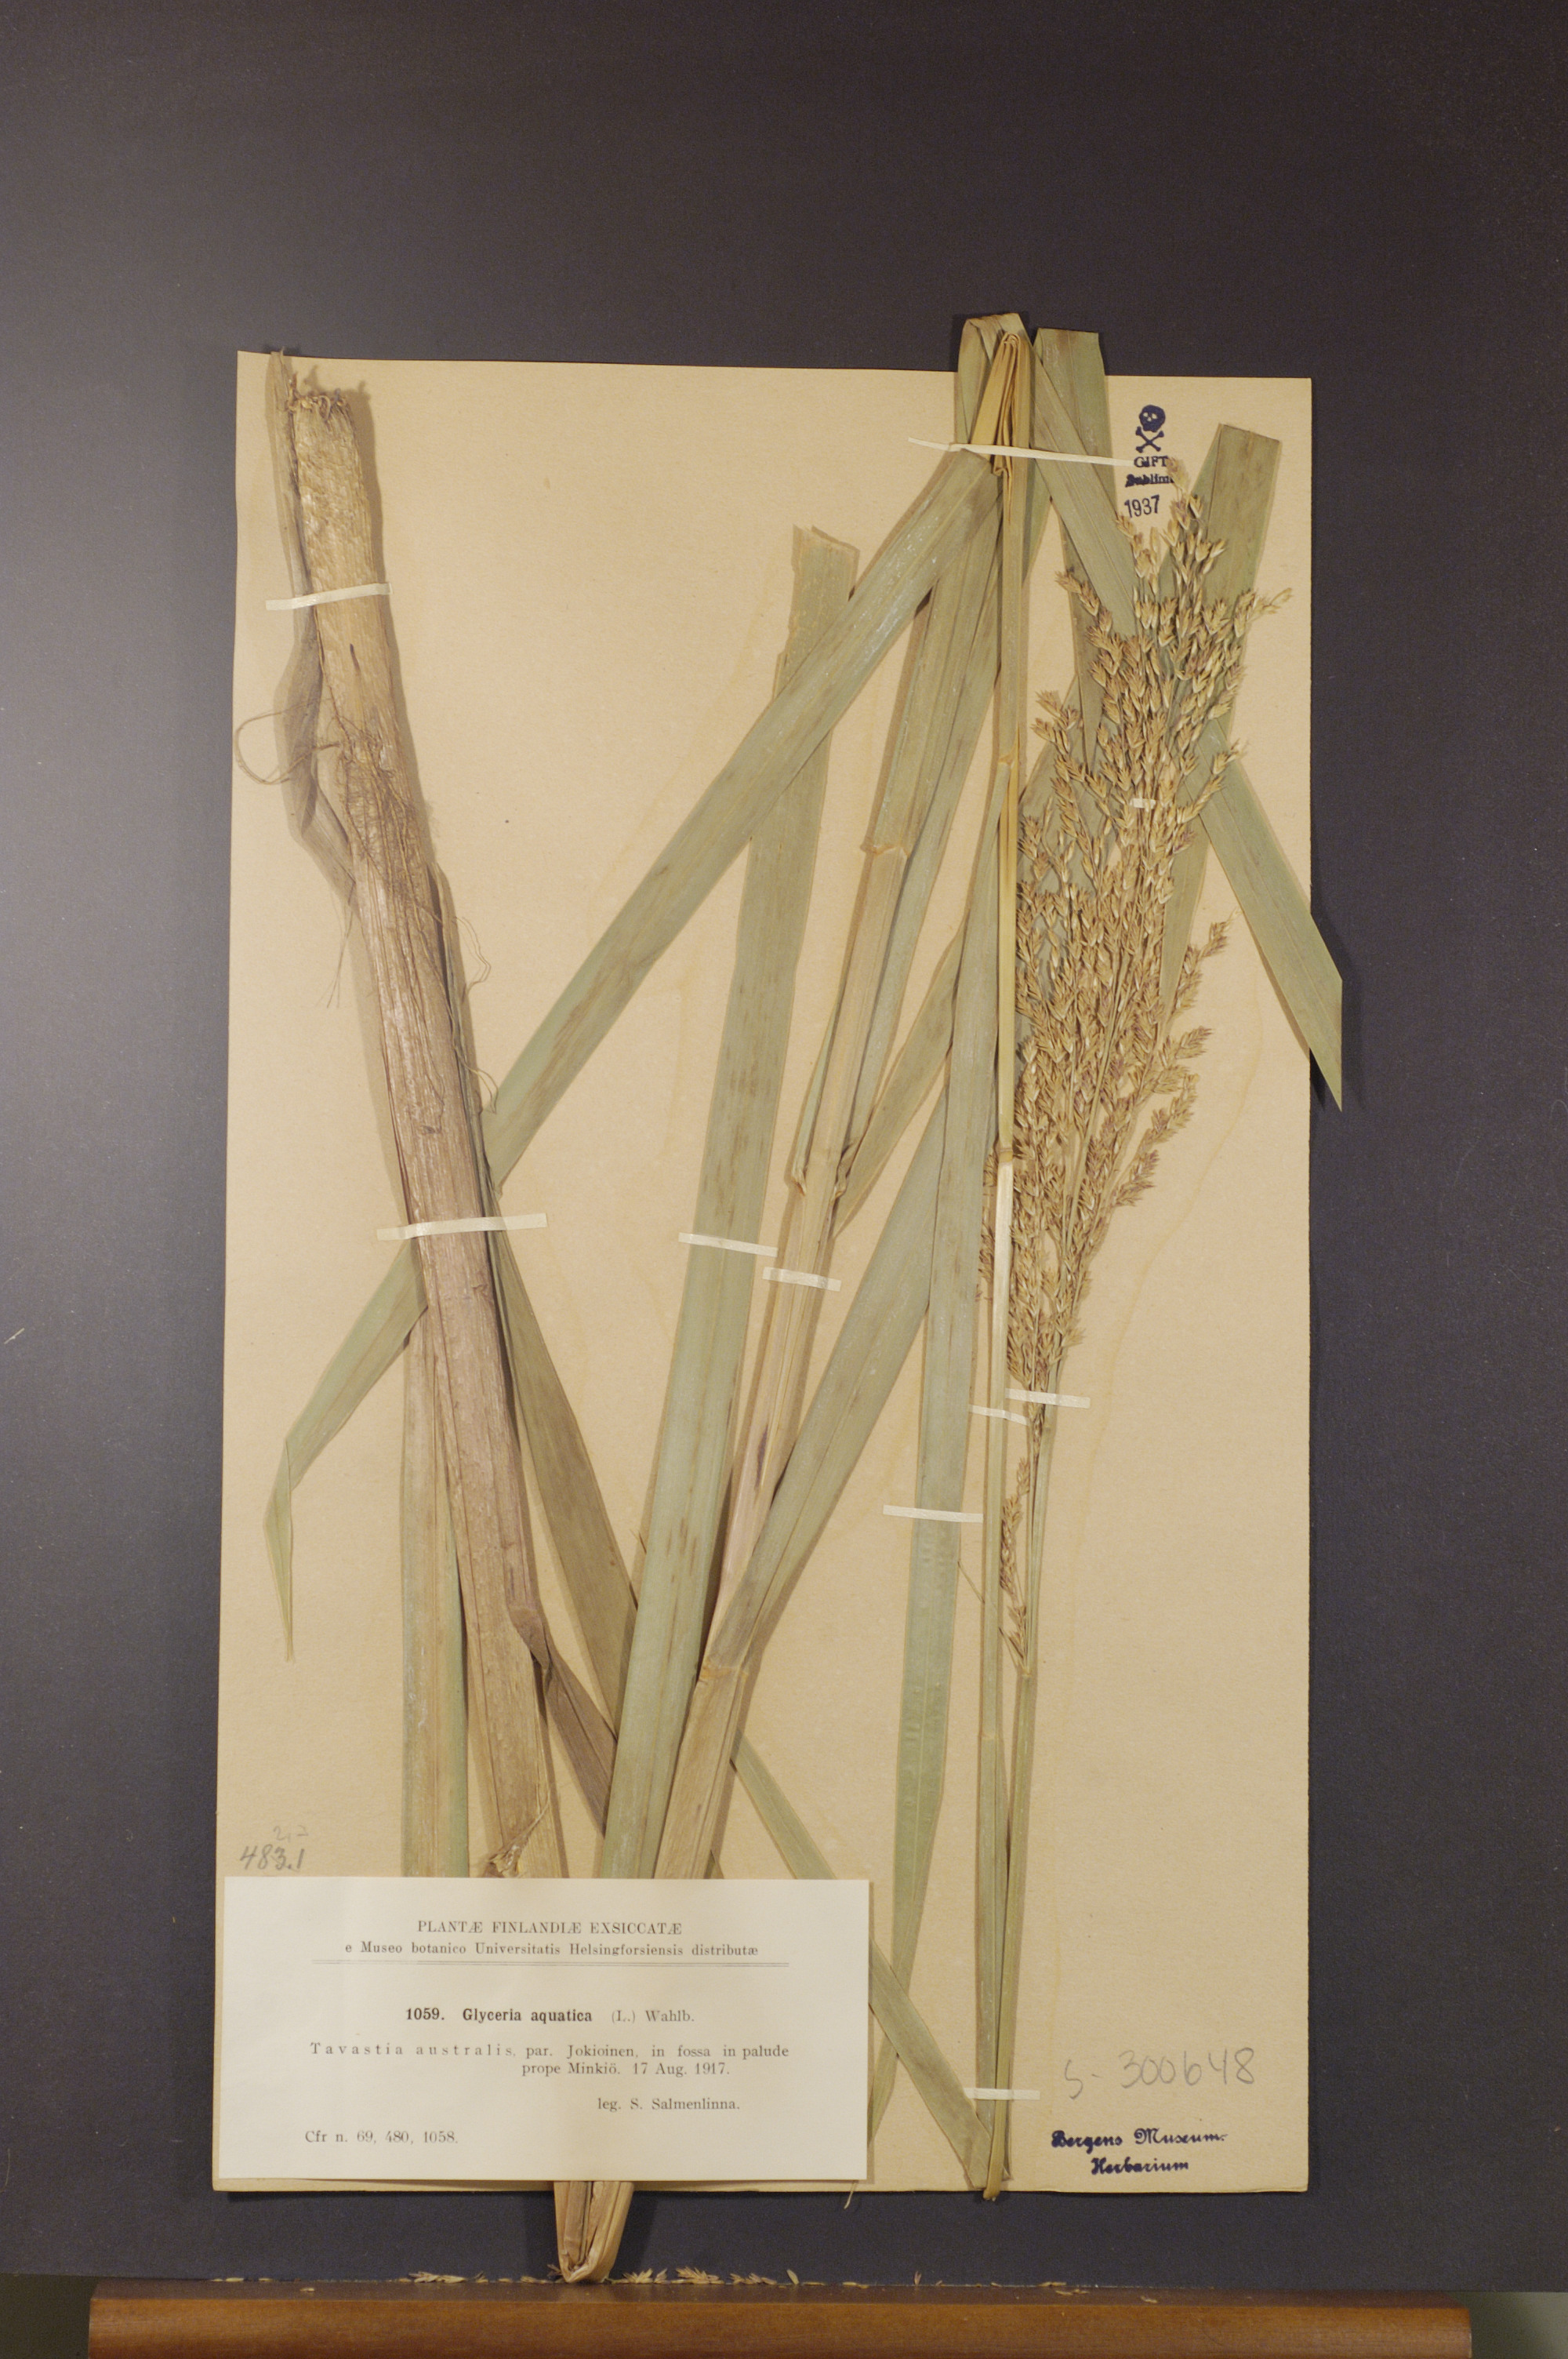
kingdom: Plantae
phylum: Tracheophyta
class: Liliopsida
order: Poales
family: Poaceae
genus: Glyceria
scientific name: Glyceria maxima
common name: Reed mannagrass
